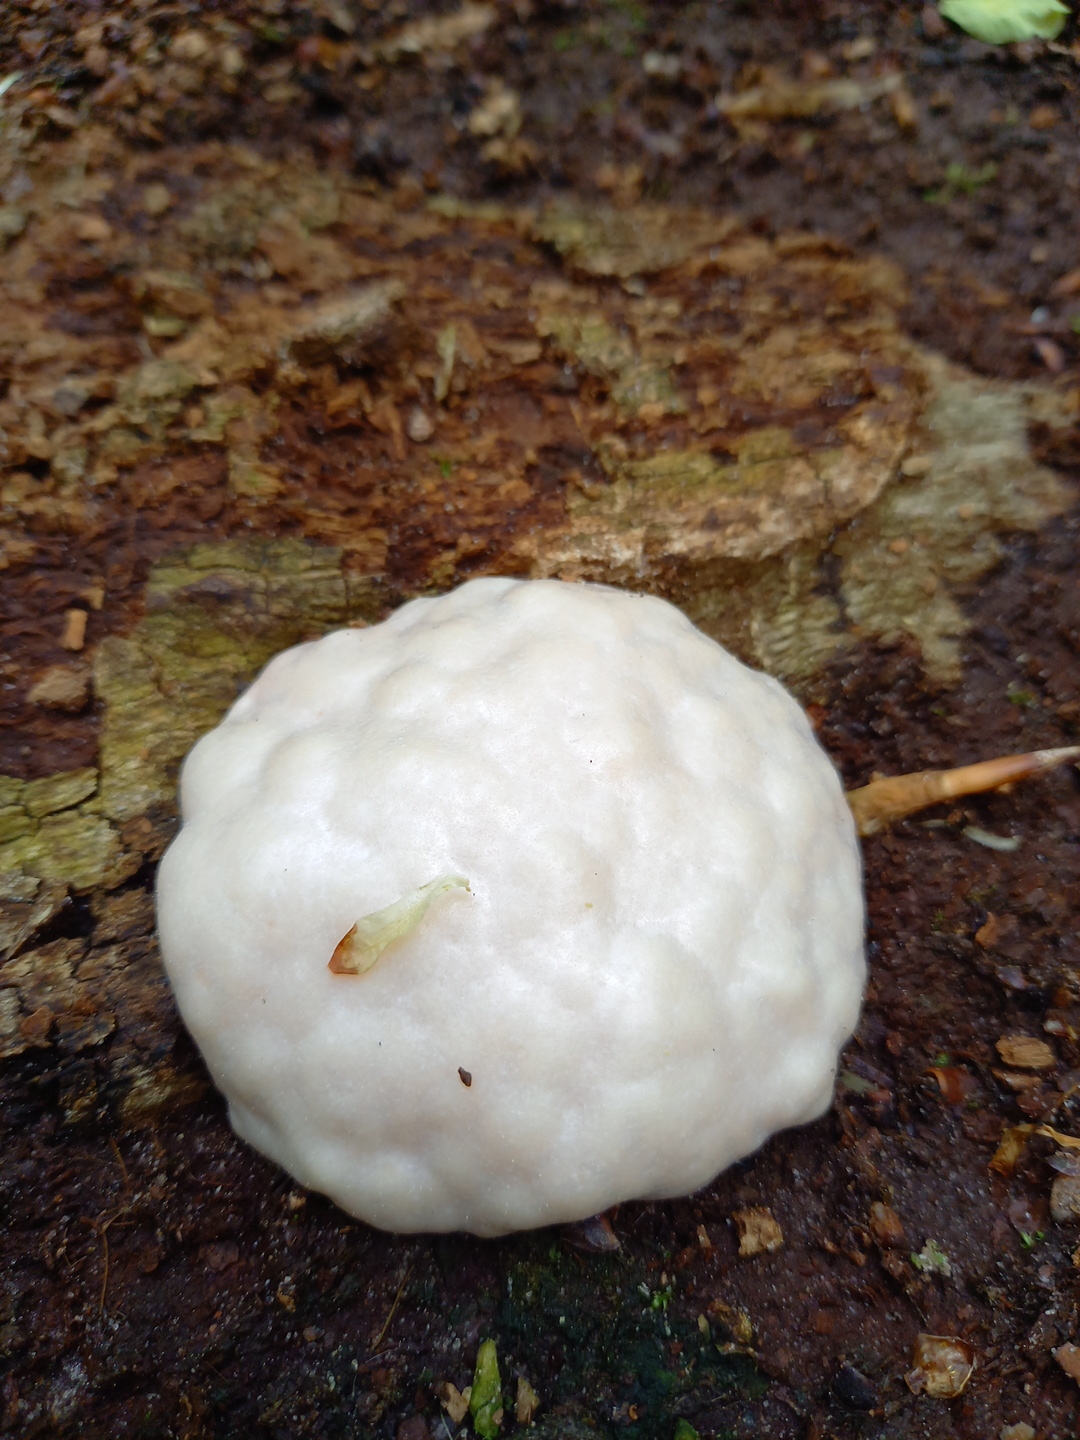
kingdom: Protozoa
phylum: Mycetozoa
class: Myxomycetes
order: Cribrariales
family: Tubiferaceae
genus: Reticularia
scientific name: Reticularia lycoperdon
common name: skinnende støvpude
